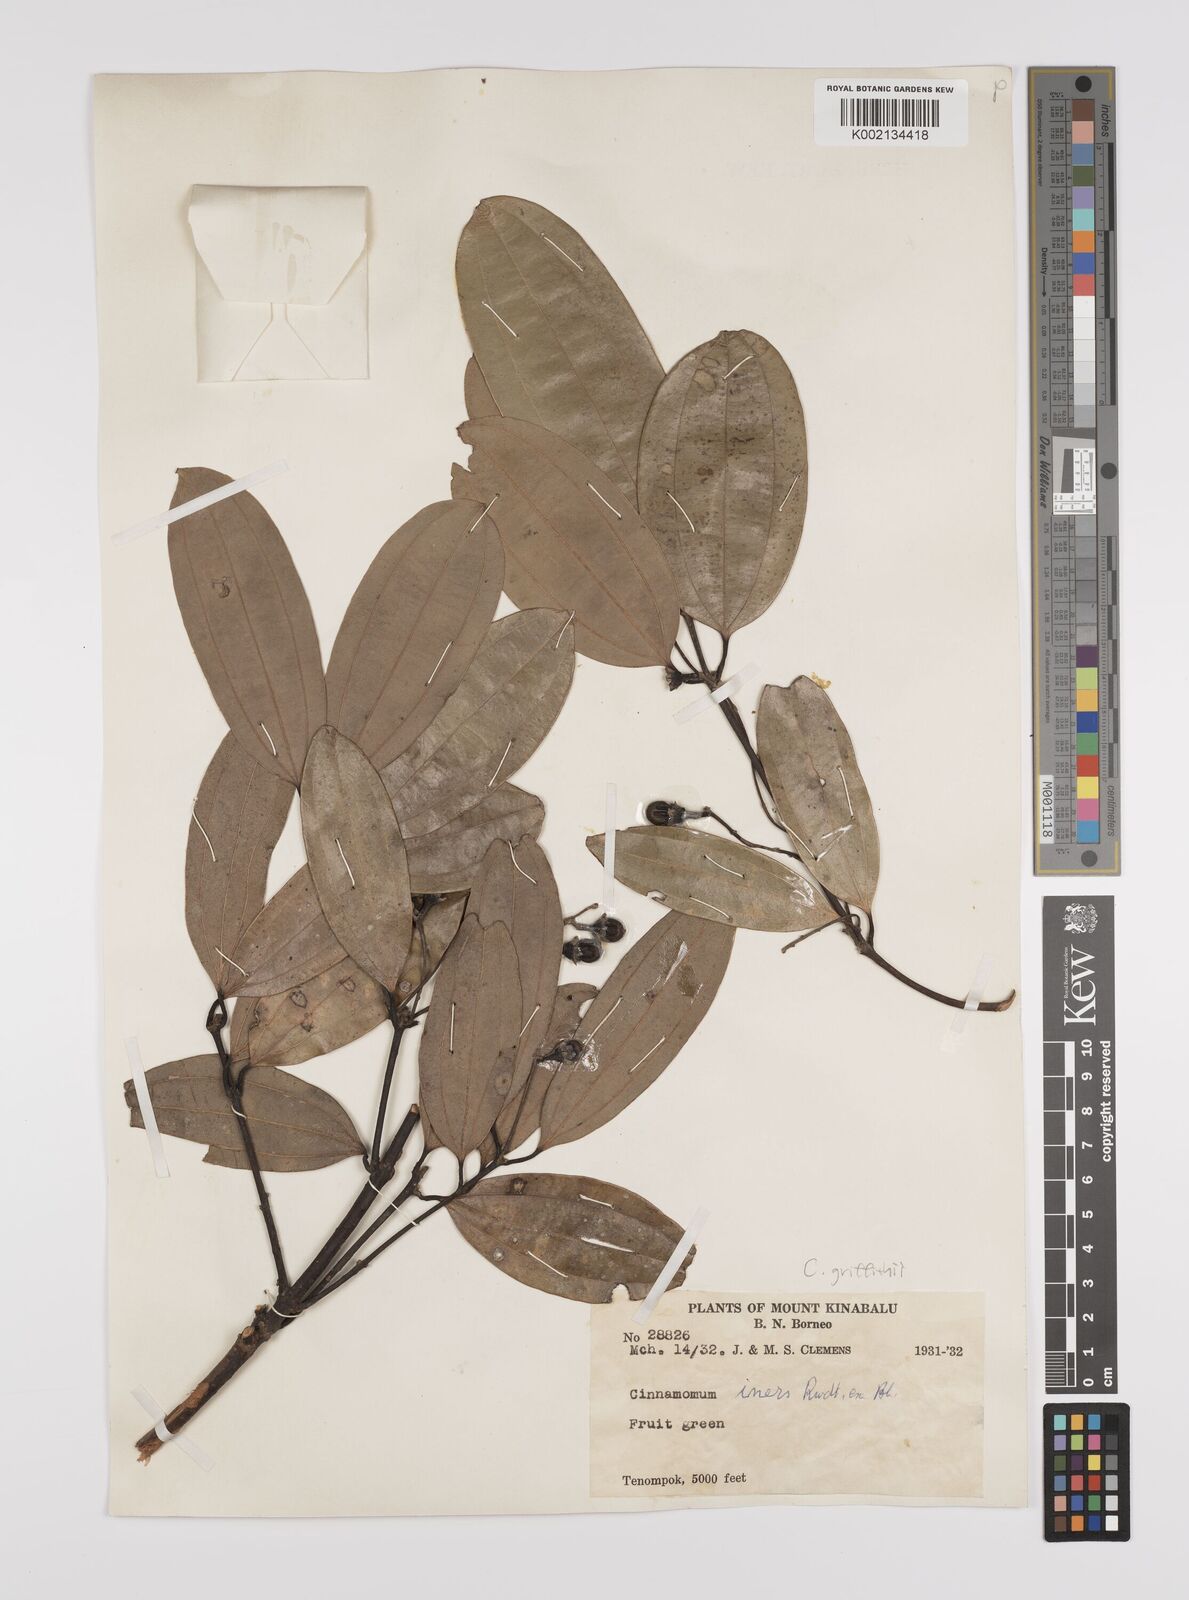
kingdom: Plantae
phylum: Tracheophyta
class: Magnoliopsida
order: Laurales
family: Lauraceae
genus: Cinnamomum
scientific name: Cinnamomum iners
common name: Wild cinnamon
